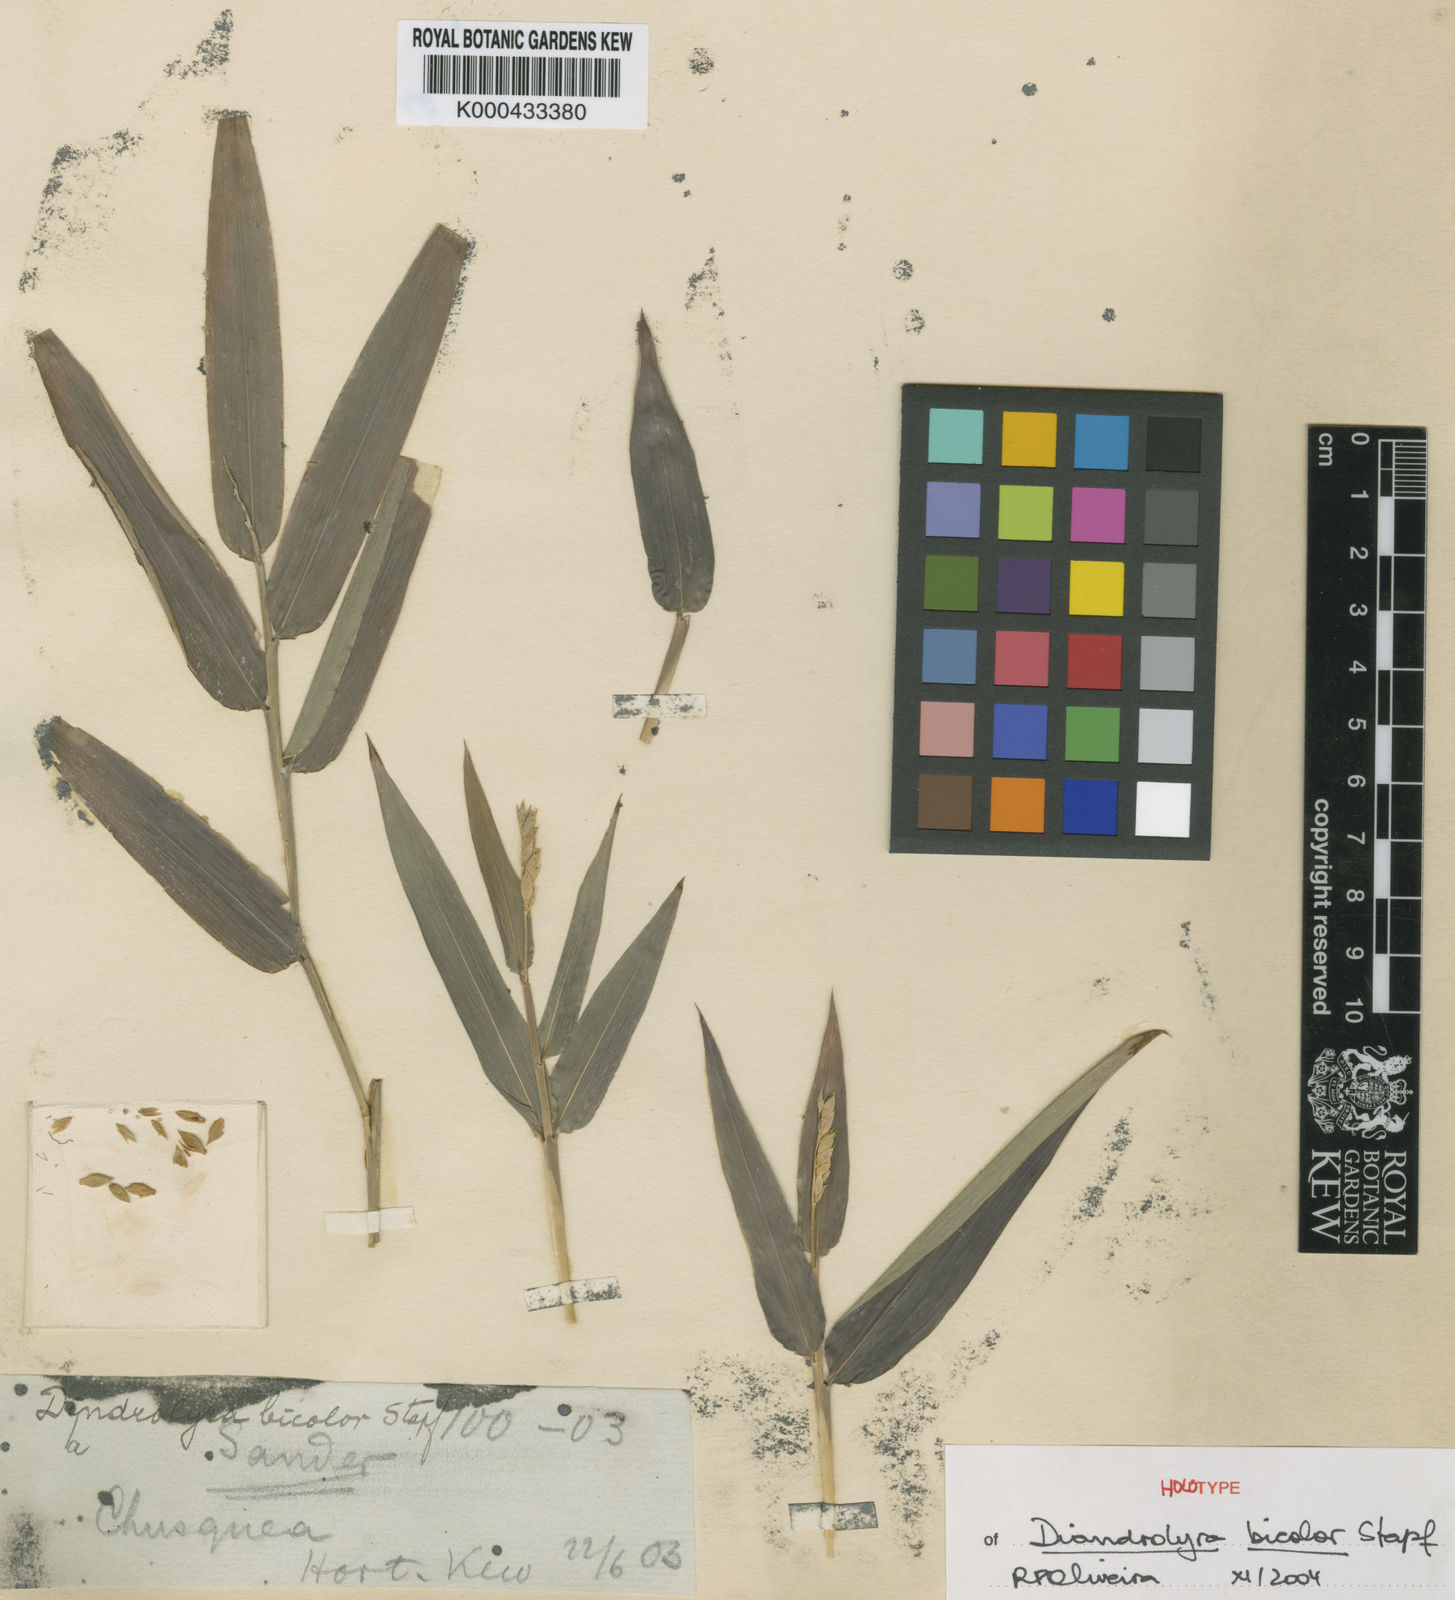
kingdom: Plantae
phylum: Tracheophyta
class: Liliopsida
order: Poales
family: Poaceae
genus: Diandrolyra
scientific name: Diandrolyra bicolor
